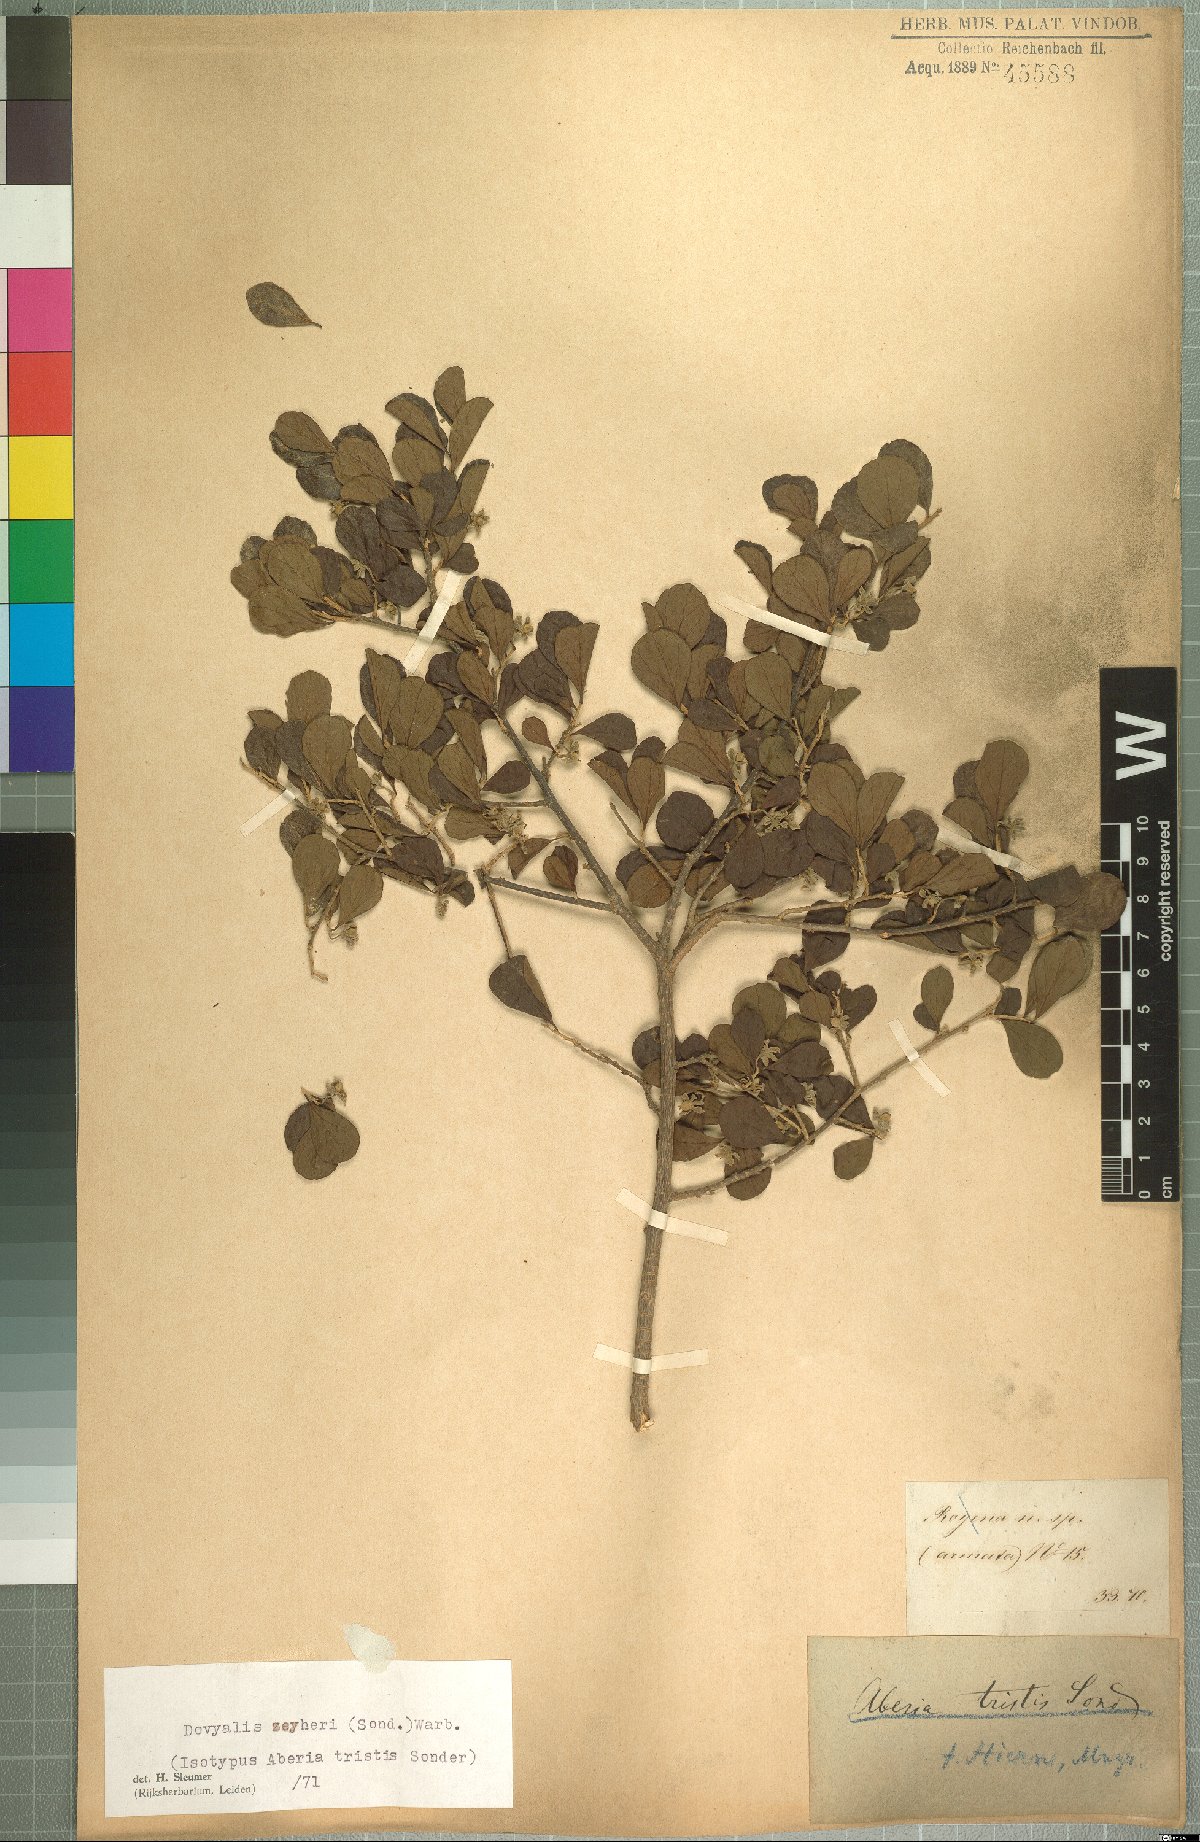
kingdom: Plantae
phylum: Tracheophyta
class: Magnoliopsida
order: Malpighiales
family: Salicaceae
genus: Dovyalis
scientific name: Dovyalis zeyheri
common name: Apricot sourberry
